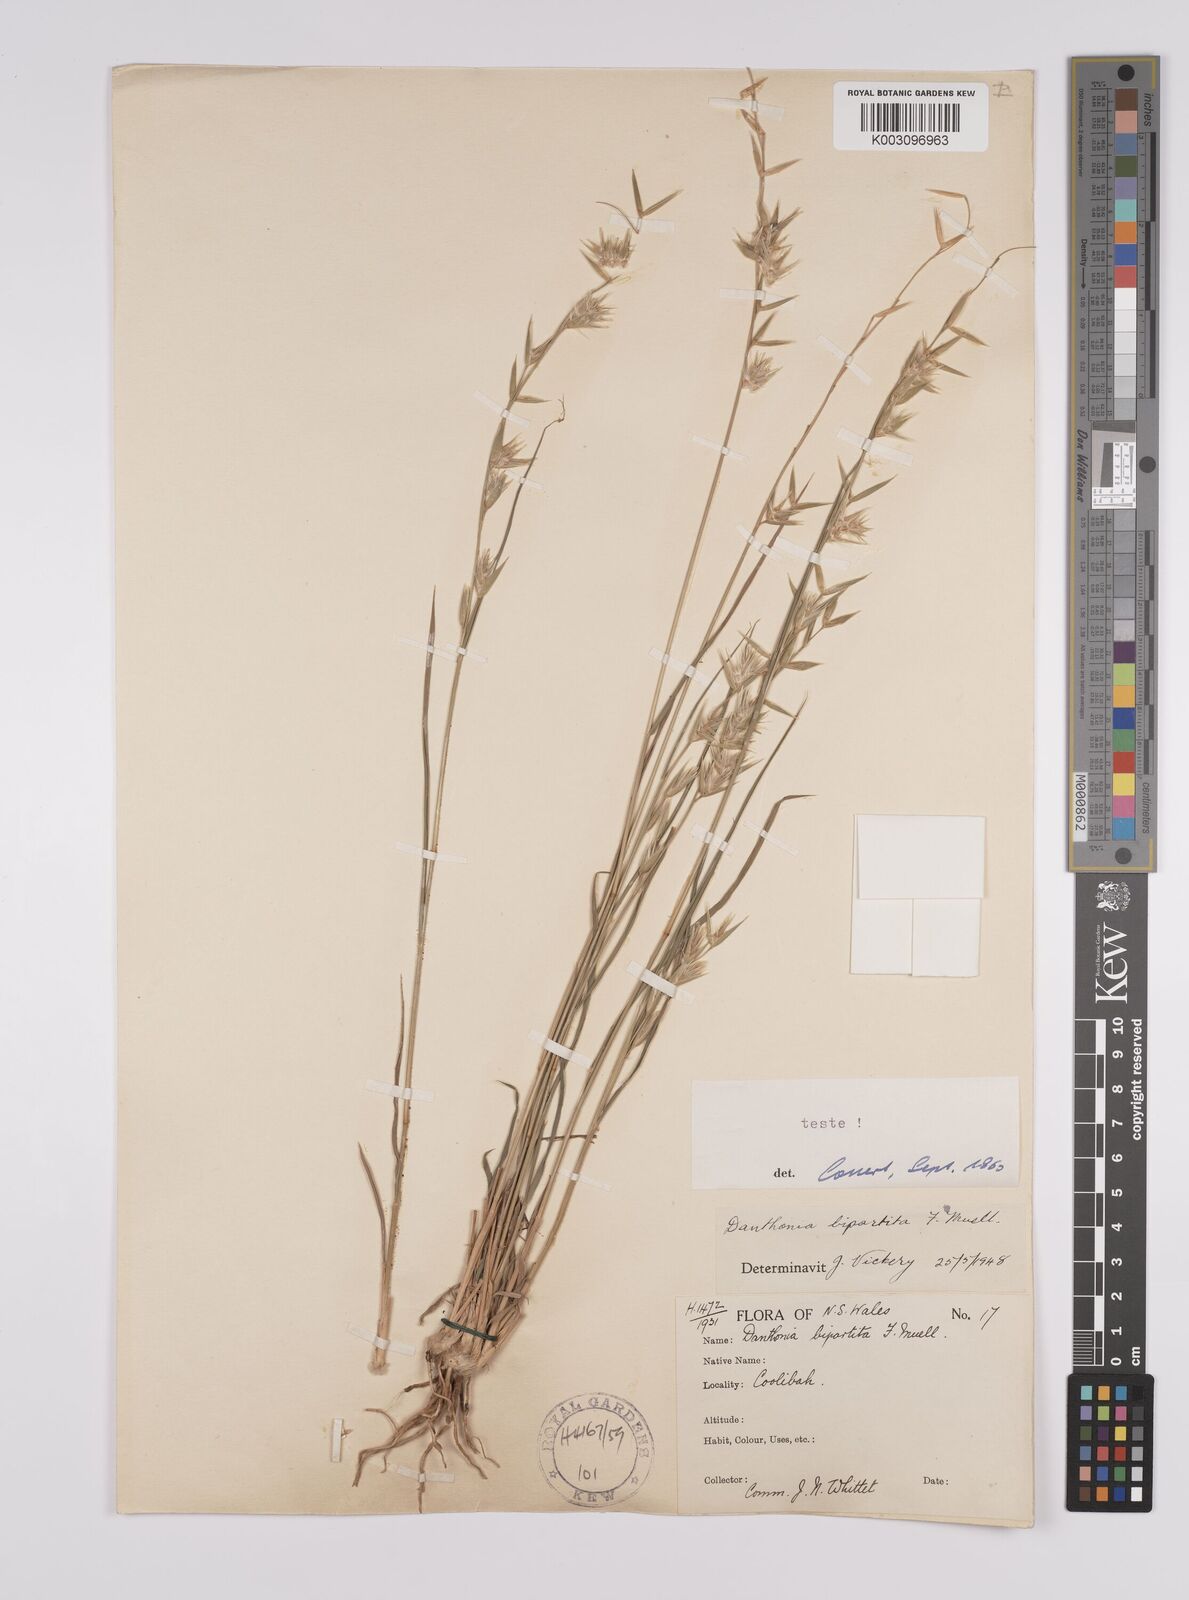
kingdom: Plantae
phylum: Tracheophyta
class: Liliopsida
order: Poales
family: Poaceae
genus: Monachather
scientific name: Monachather paradoxus
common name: Bandicoot grass
